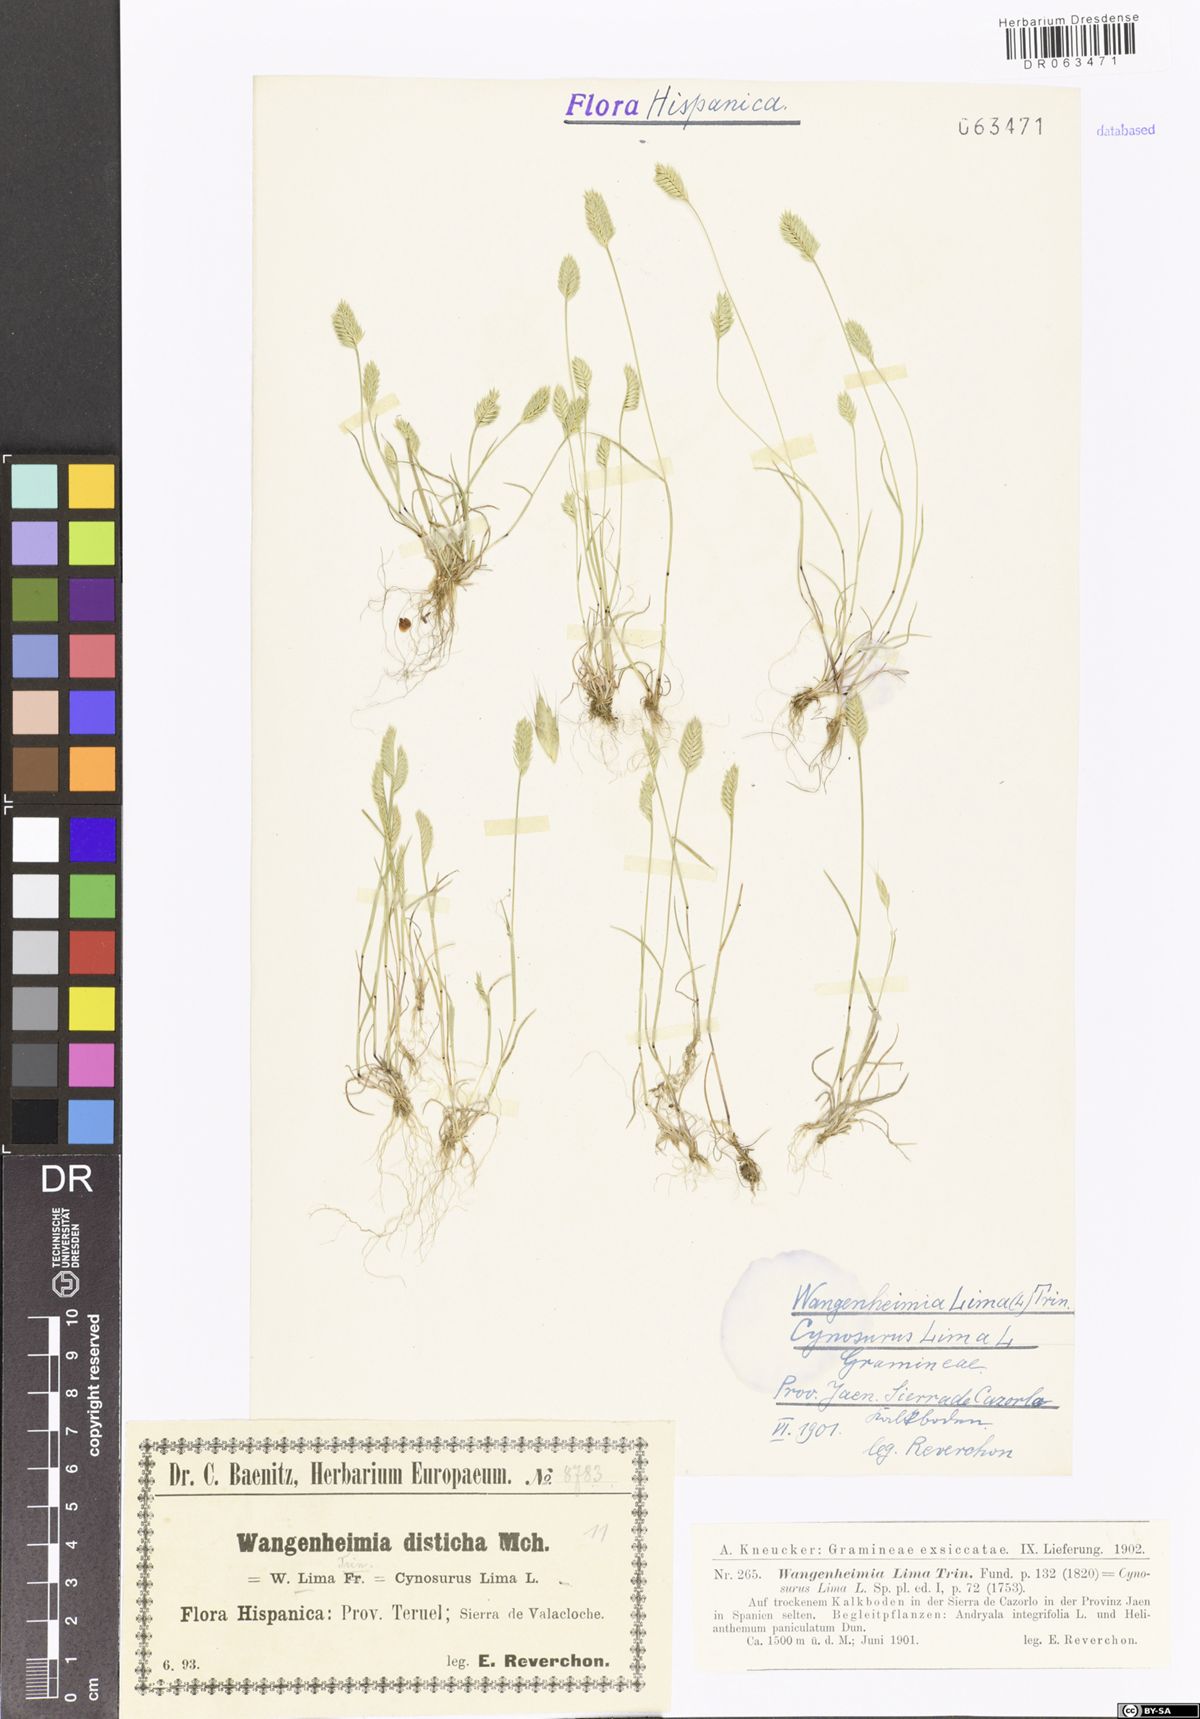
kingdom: Plantae
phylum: Tracheophyta
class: Liliopsida
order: Poales
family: Poaceae
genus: Wangenheimia
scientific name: Wangenheimia lima
